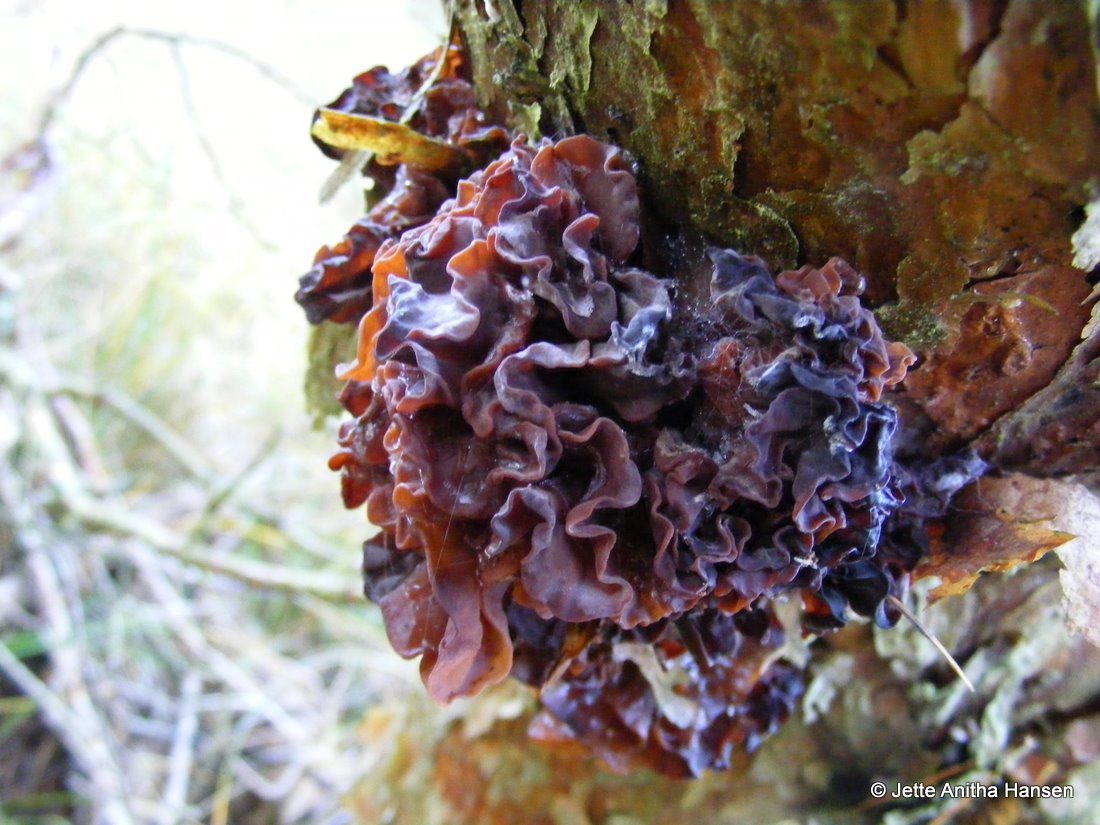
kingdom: Fungi
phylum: Basidiomycota
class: Tremellomycetes
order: Tremellales
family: Tremellaceae
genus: Phaeotremella
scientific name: Phaeotremella foliacea
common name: brun bævresvamp
